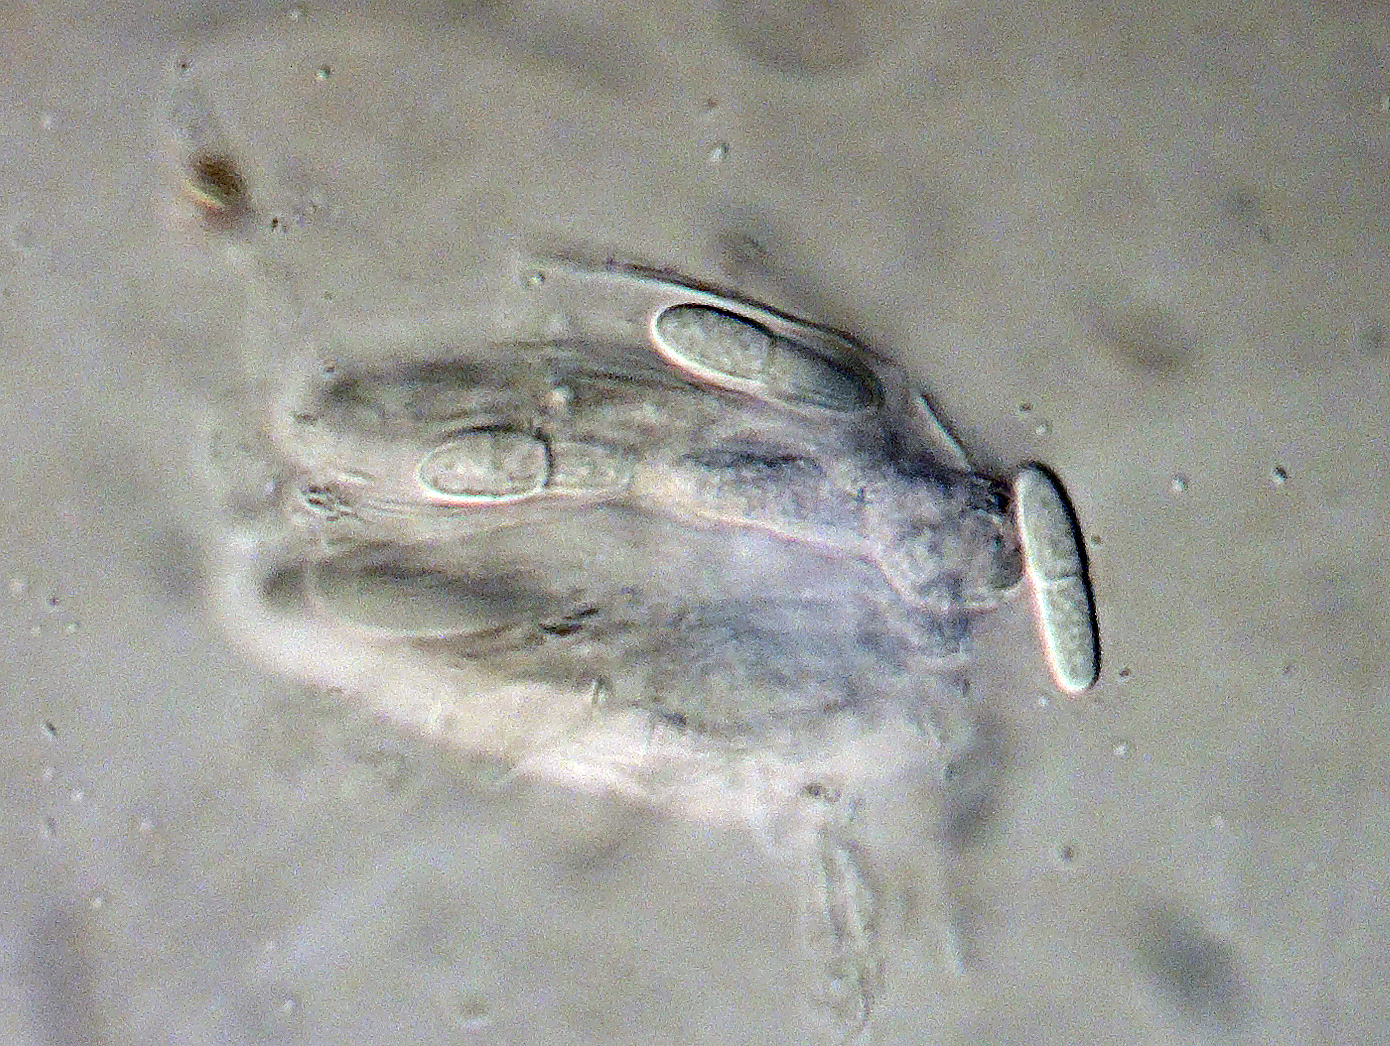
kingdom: Plantae
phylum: Bryophyta
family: Dothideomycetes
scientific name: Dothideomycetes
